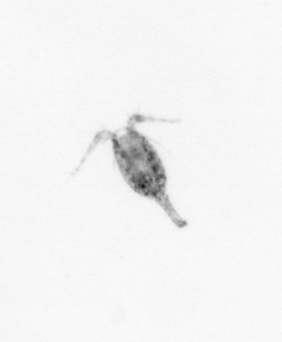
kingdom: Animalia
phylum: Arthropoda
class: Copepoda
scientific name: Copepoda
